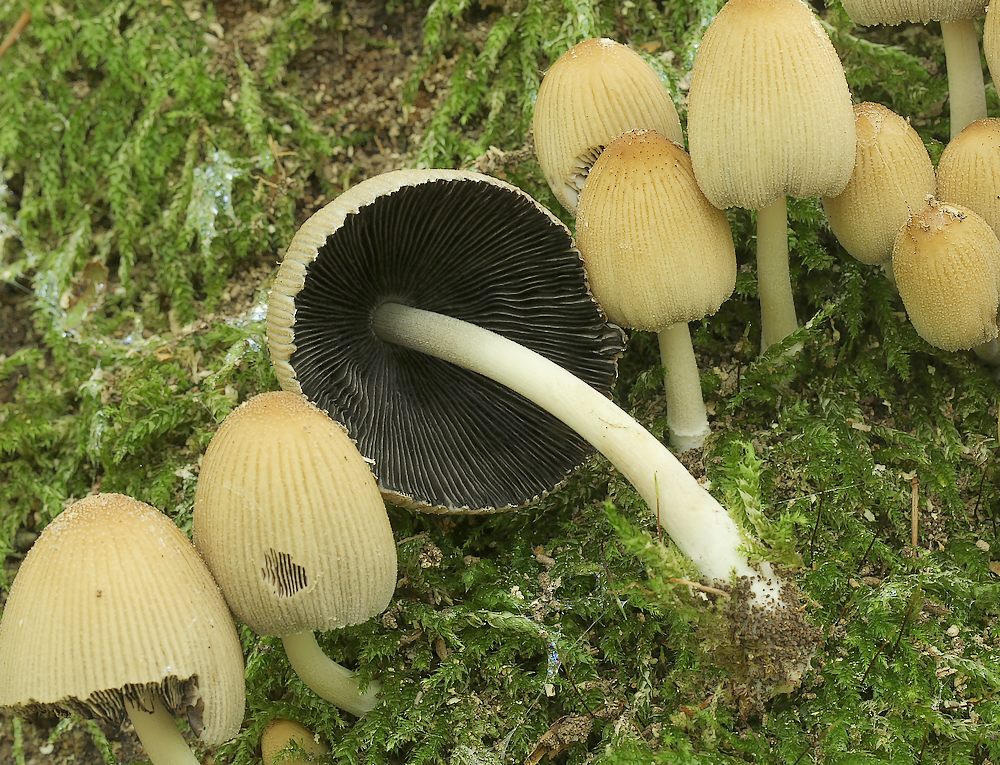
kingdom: Fungi
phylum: Basidiomycota
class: Agaricomycetes
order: Agaricales
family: Psathyrellaceae
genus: Coprinellus
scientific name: Coprinellus micaceus
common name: glimmer-blækhat
